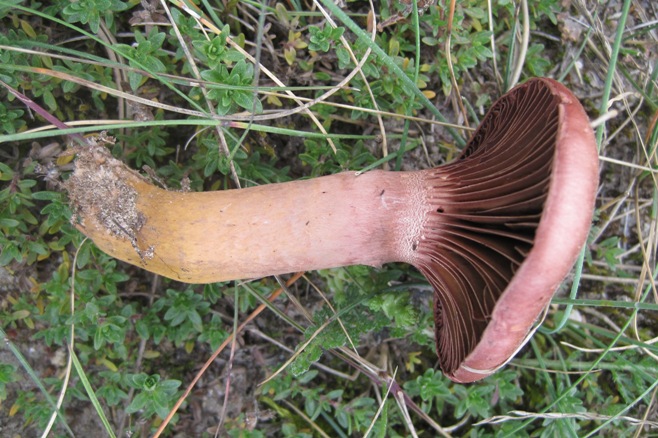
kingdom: Fungi
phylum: Basidiomycota
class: Agaricomycetes
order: Boletales
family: Gomphidiaceae
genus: Chroogomphus
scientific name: Chroogomphus rutilus
